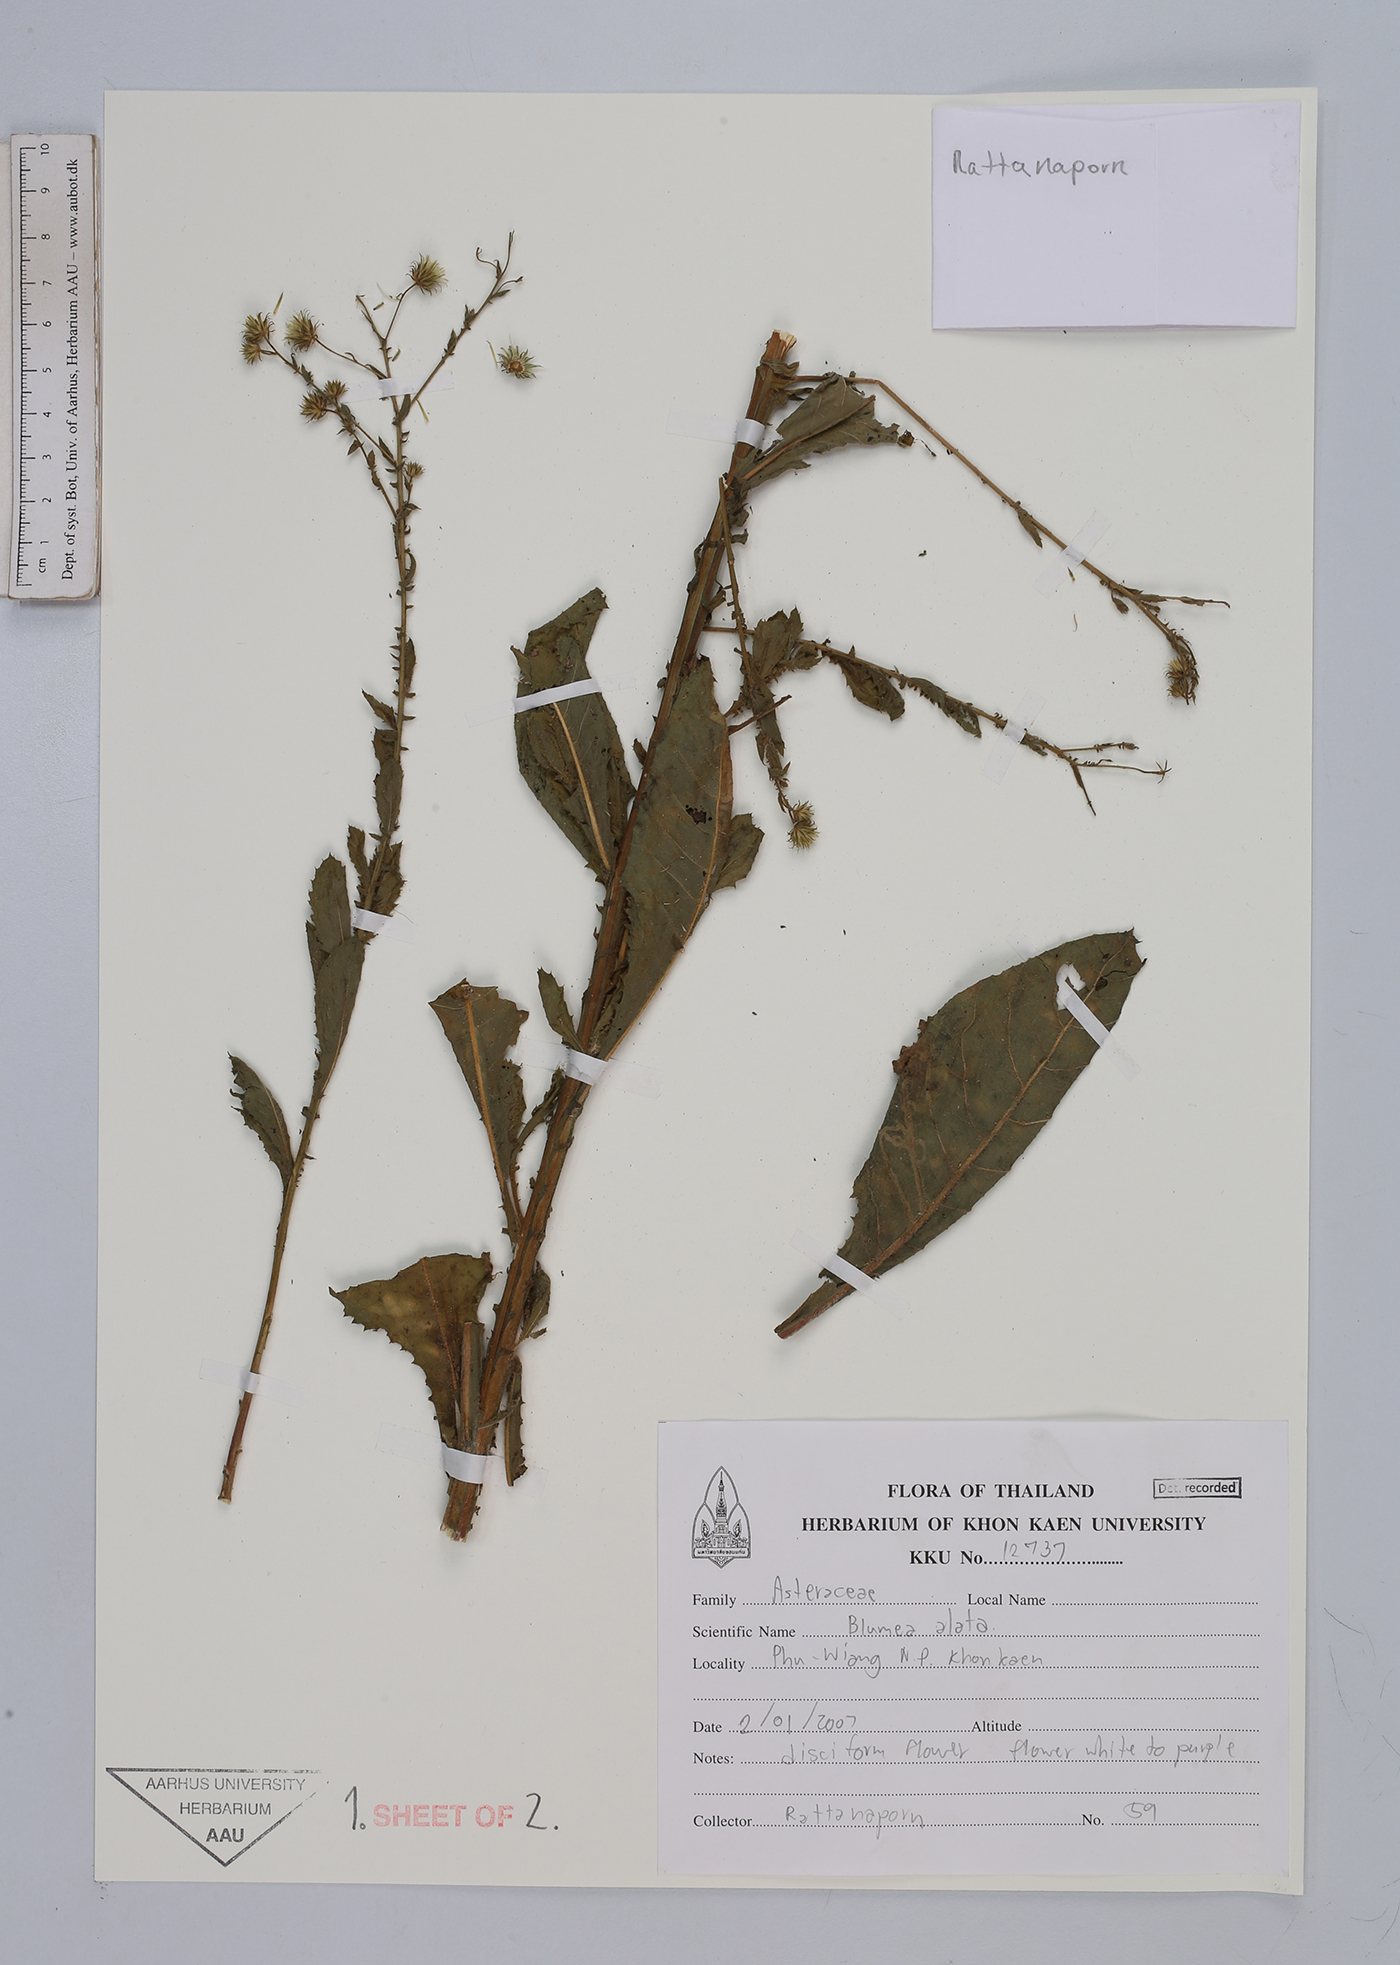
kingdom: Plantae
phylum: Tracheophyta
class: Magnoliopsida
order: Asterales
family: Asteraceae
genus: Laggera
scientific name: Laggera alata
